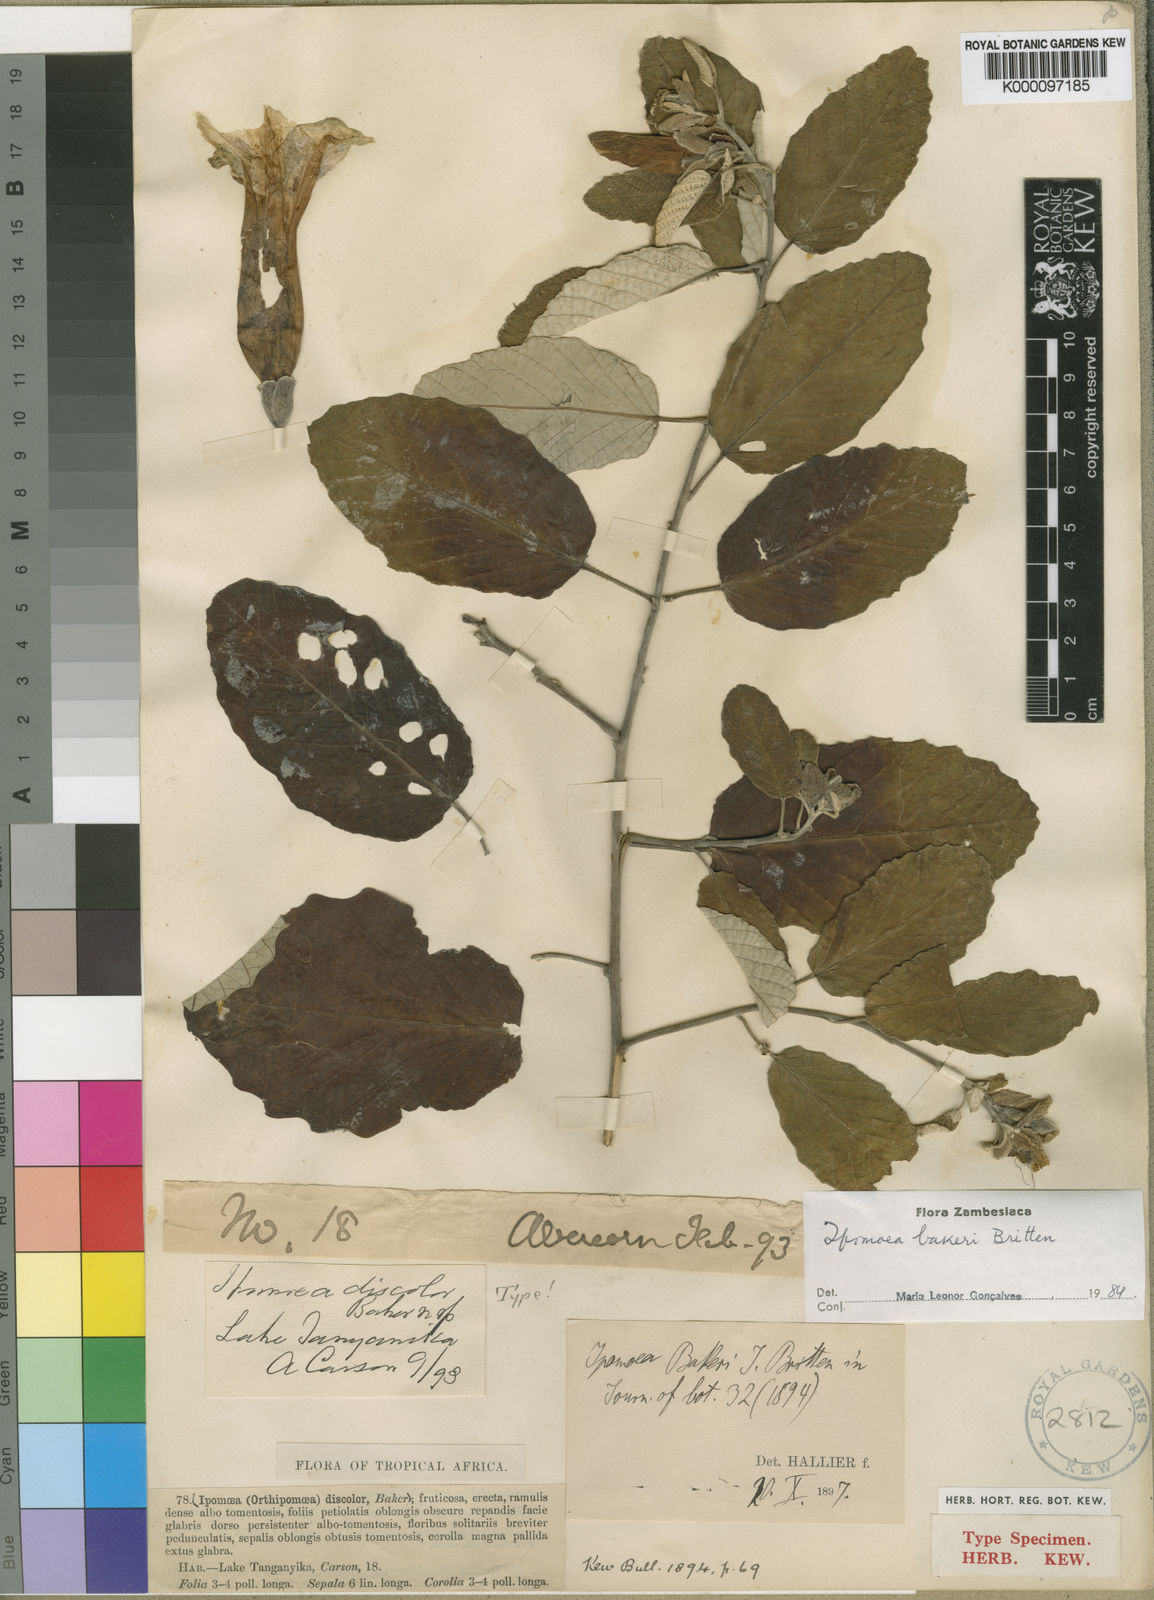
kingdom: Plantae
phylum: Tracheophyta
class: Magnoliopsida
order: Solanales
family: Convolvulaceae
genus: Ipomoea
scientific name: Ipomoea bakeri
